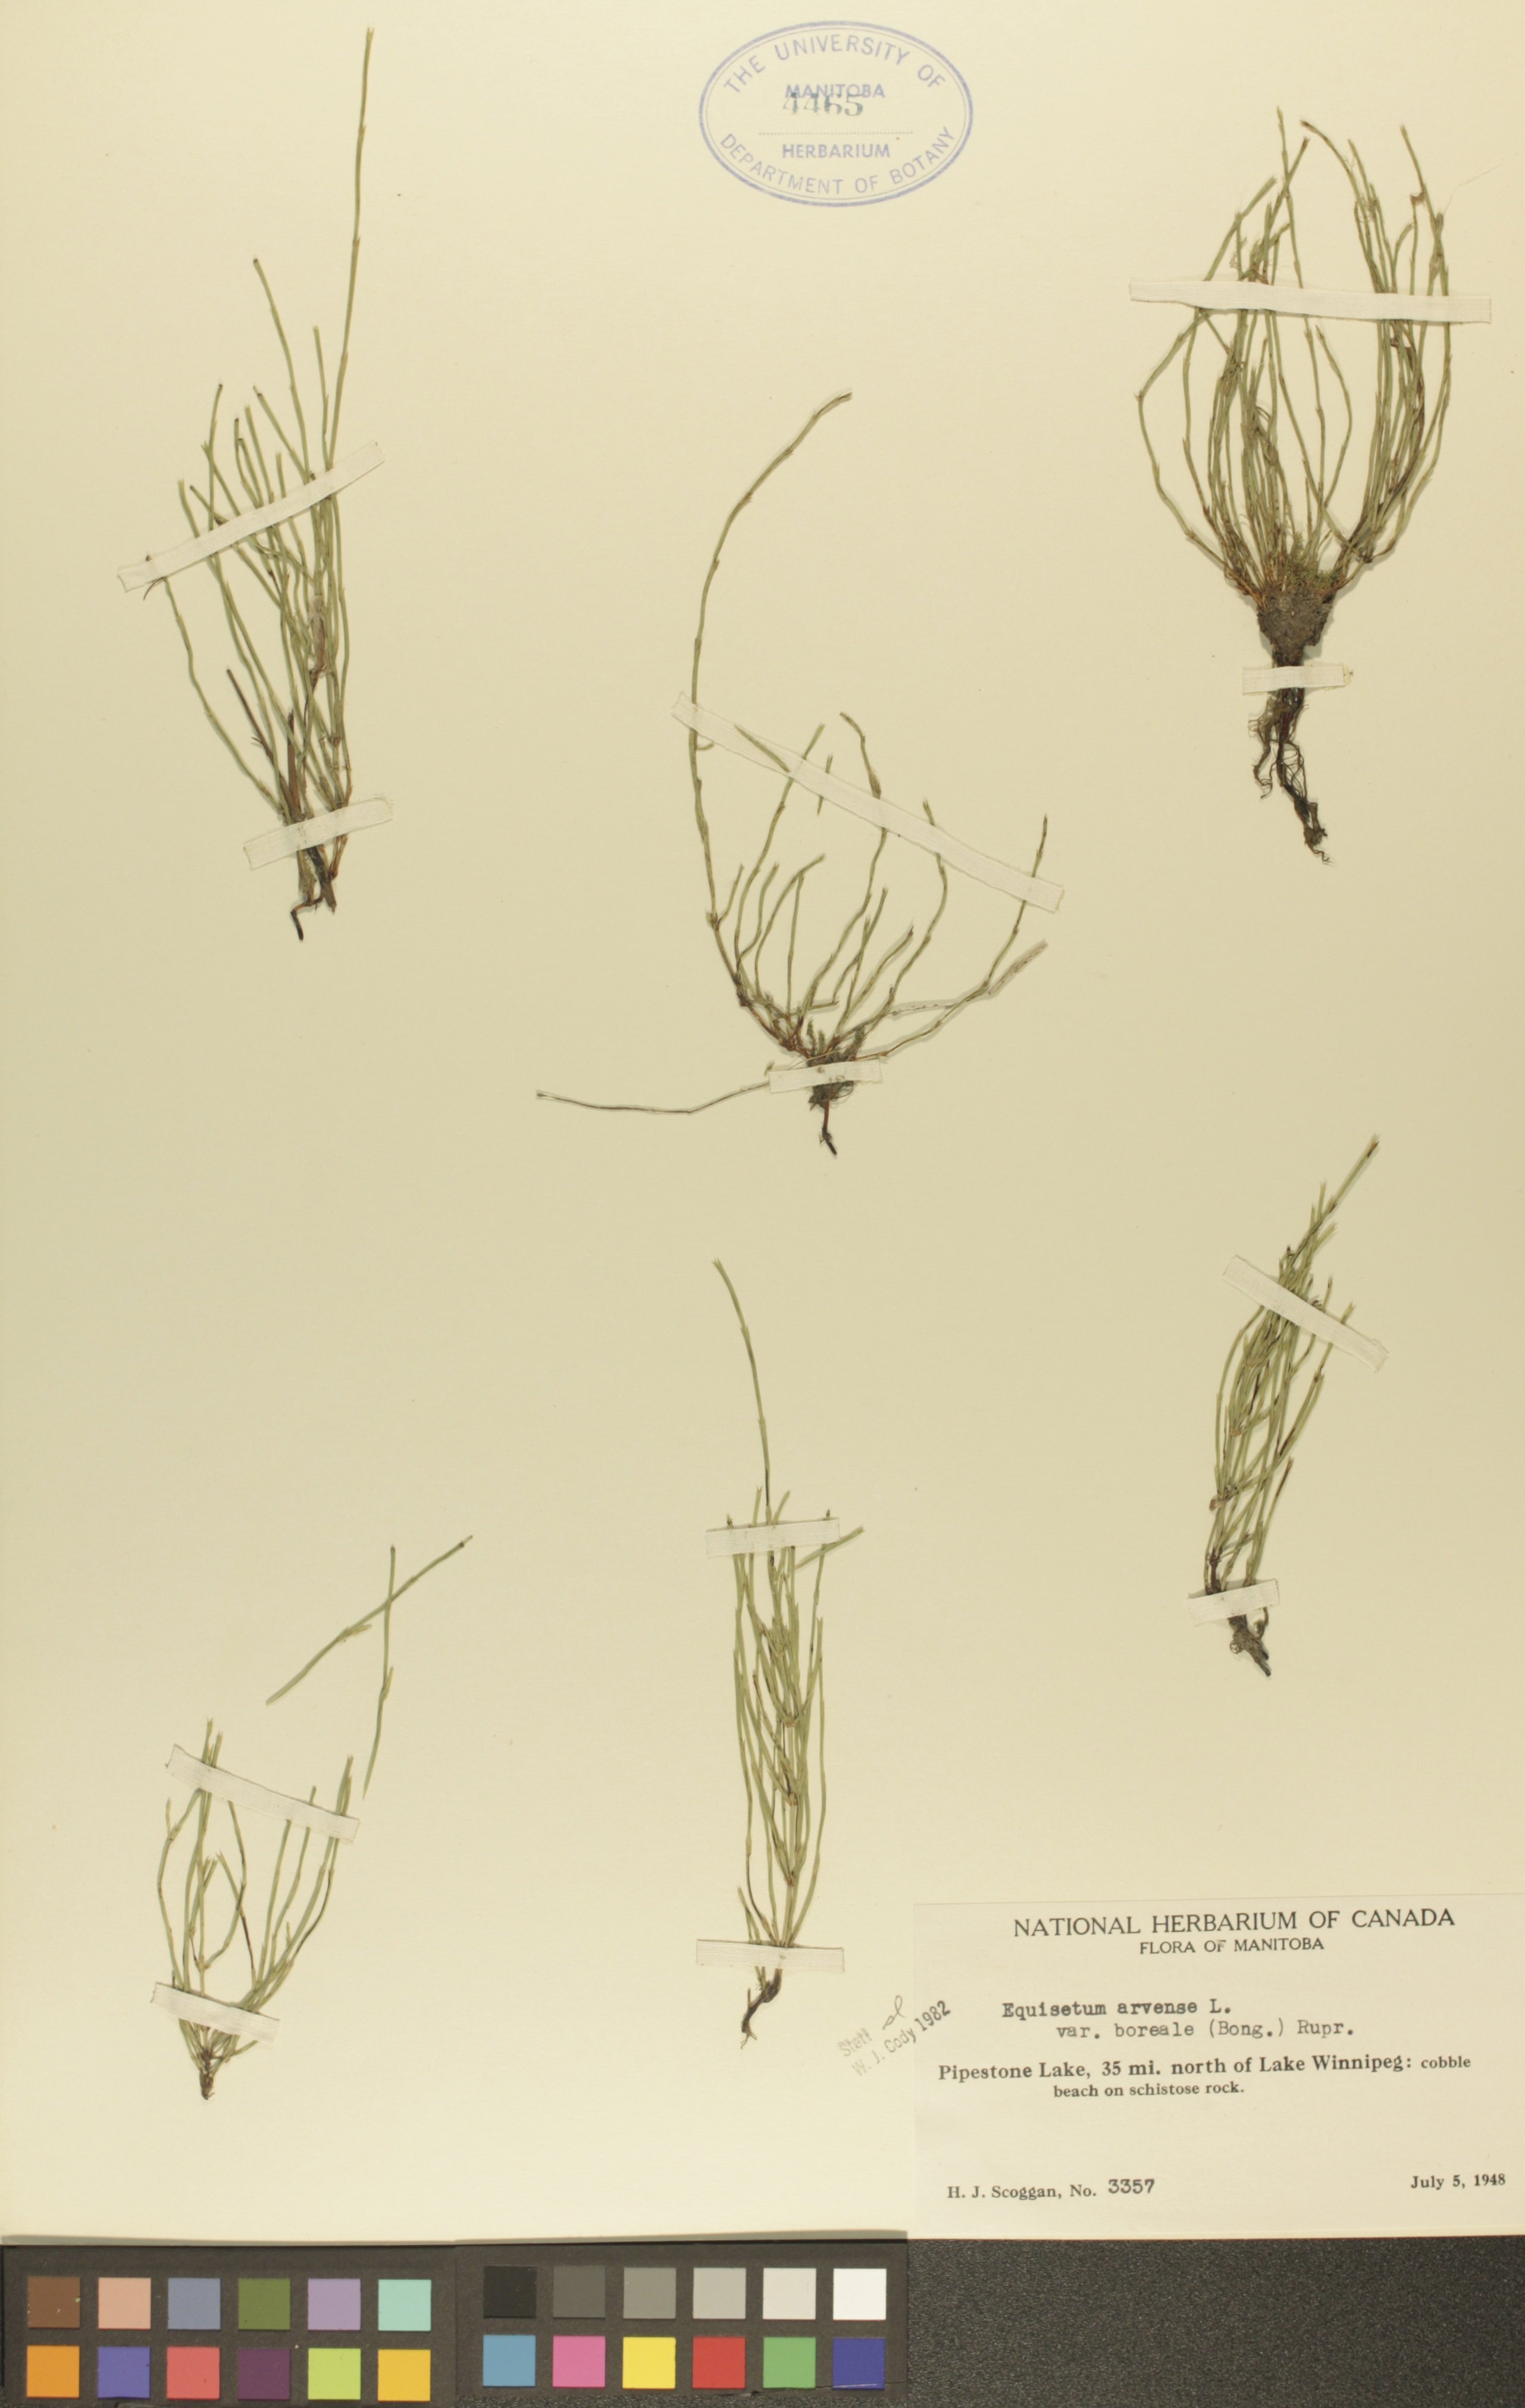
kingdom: Plantae
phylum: Tracheophyta
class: Polypodiopsida
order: Equisetales
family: Equisetaceae
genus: Equisetum
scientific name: Equisetum arvense
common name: Field horsetail
